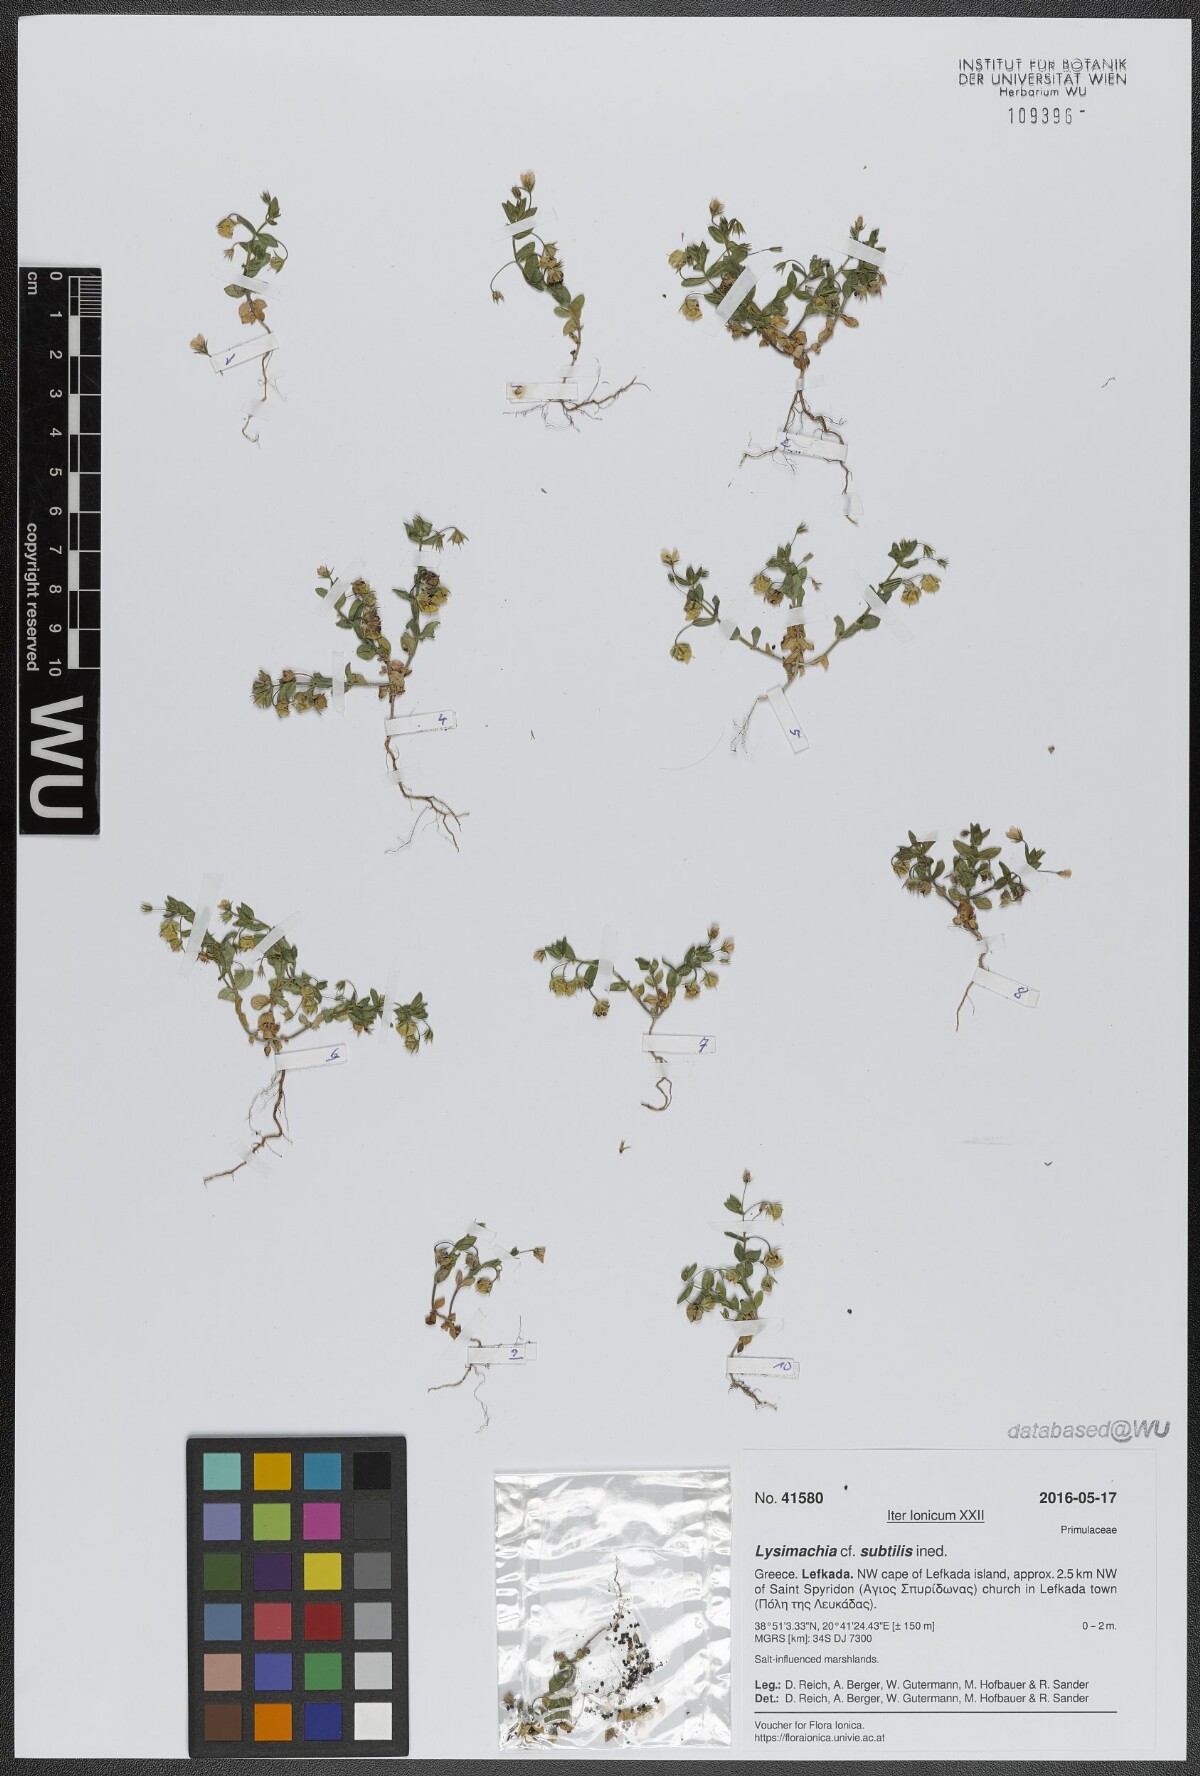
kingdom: Plantae
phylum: Tracheophyta
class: Magnoliopsida
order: Ericales
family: Primulaceae
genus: Lysimachia
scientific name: Lysimachia talaverae
